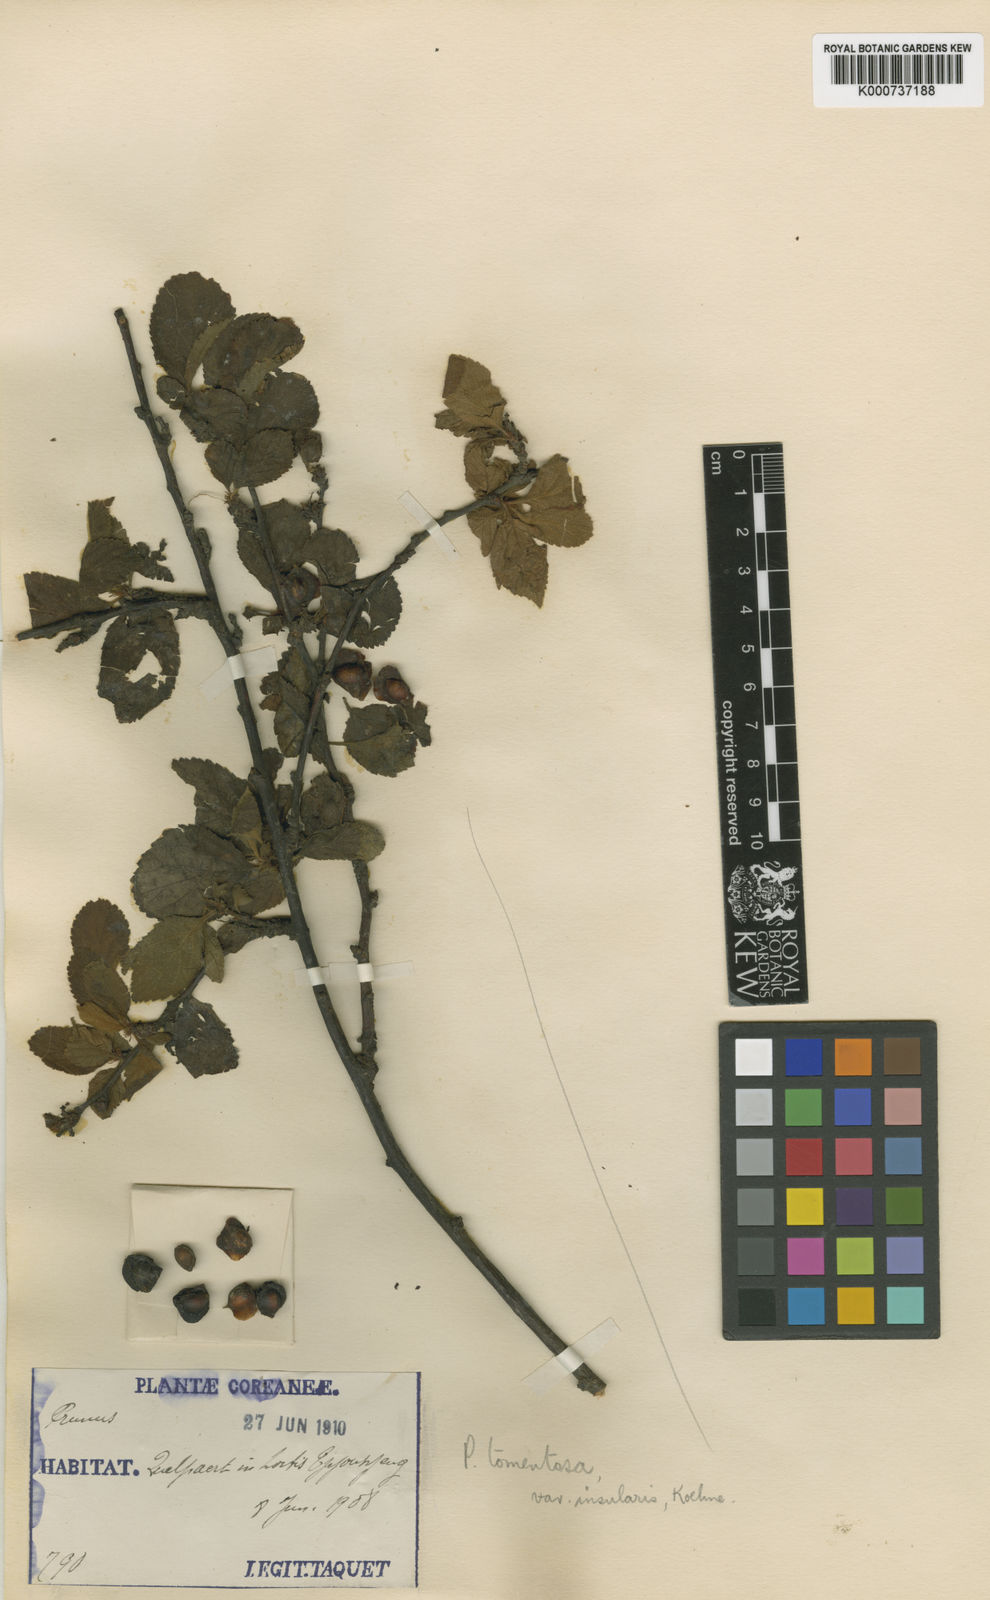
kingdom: Plantae
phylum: Tracheophyta
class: Magnoliopsida
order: Rosales
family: Rosaceae
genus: Prunus
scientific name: Prunus tomentosa
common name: Nanking cherry
